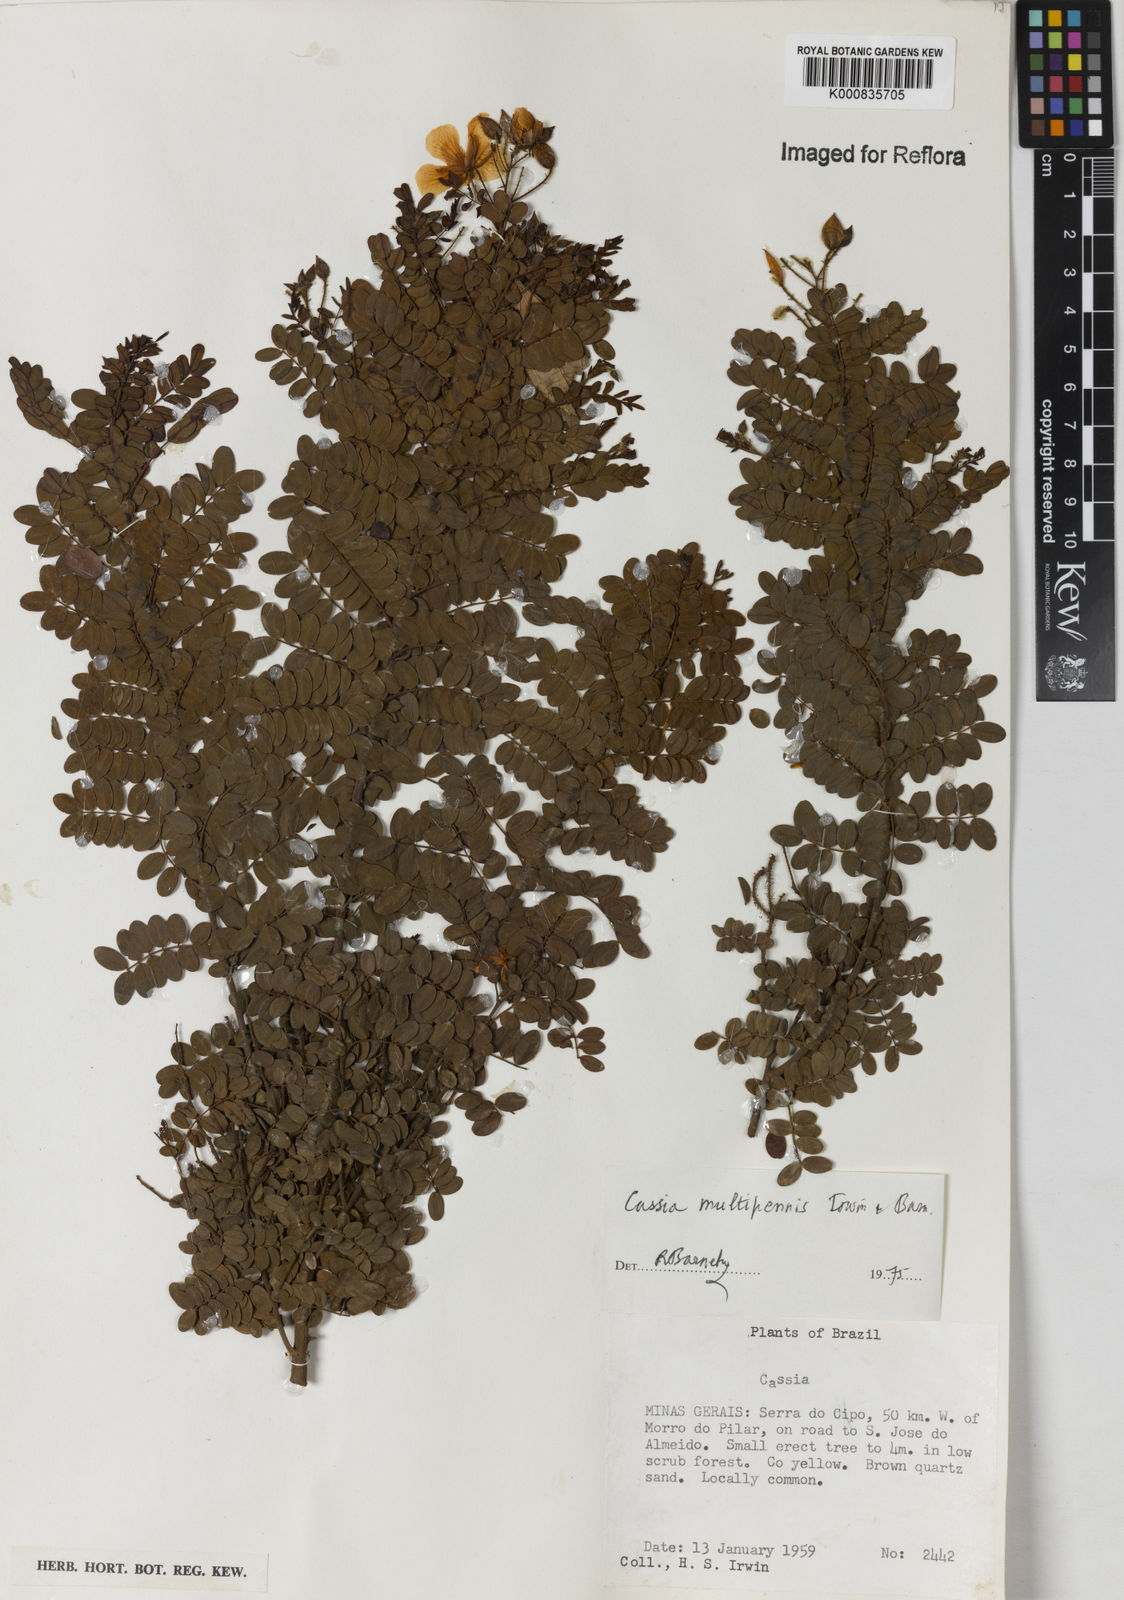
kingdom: Plantae
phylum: Tracheophyta
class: Magnoliopsida
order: Fabales
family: Fabaceae
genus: Chamaecrista
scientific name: Chamaecrista multipennis
